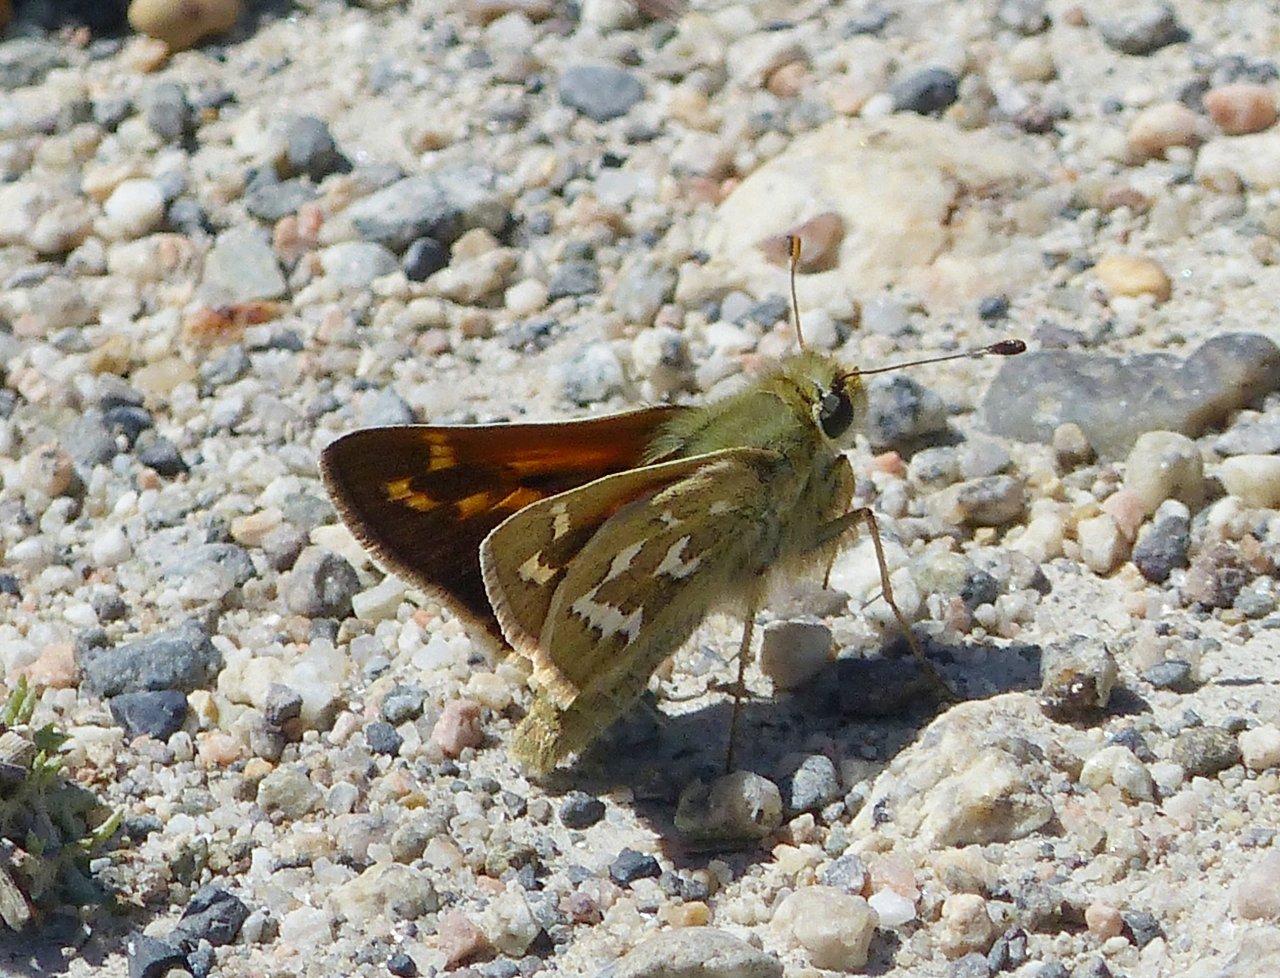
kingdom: Animalia
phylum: Arthropoda
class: Insecta
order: Lepidoptera
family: Hesperiidae
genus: Hesperia
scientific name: Hesperia comma
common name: Common Branded Skipper
